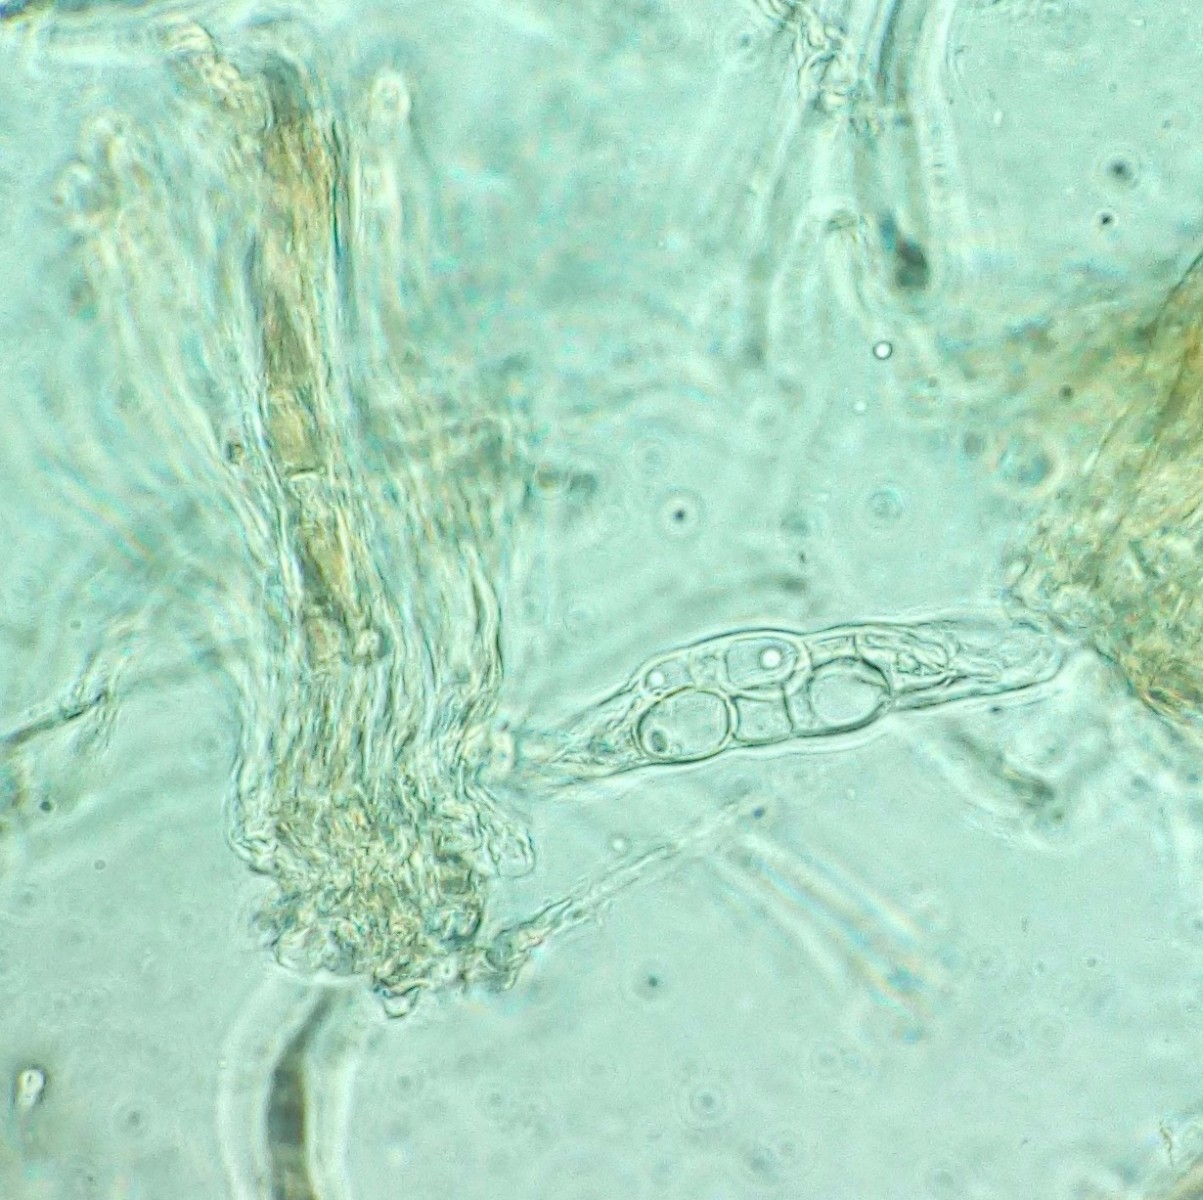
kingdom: Fungi
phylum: Ascomycota
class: Leotiomycetes
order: Helotiales
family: Drepanopezizaceae
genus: Leptotrochila
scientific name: Leptotrochila ranunculi
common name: ranunkel-bladskive
